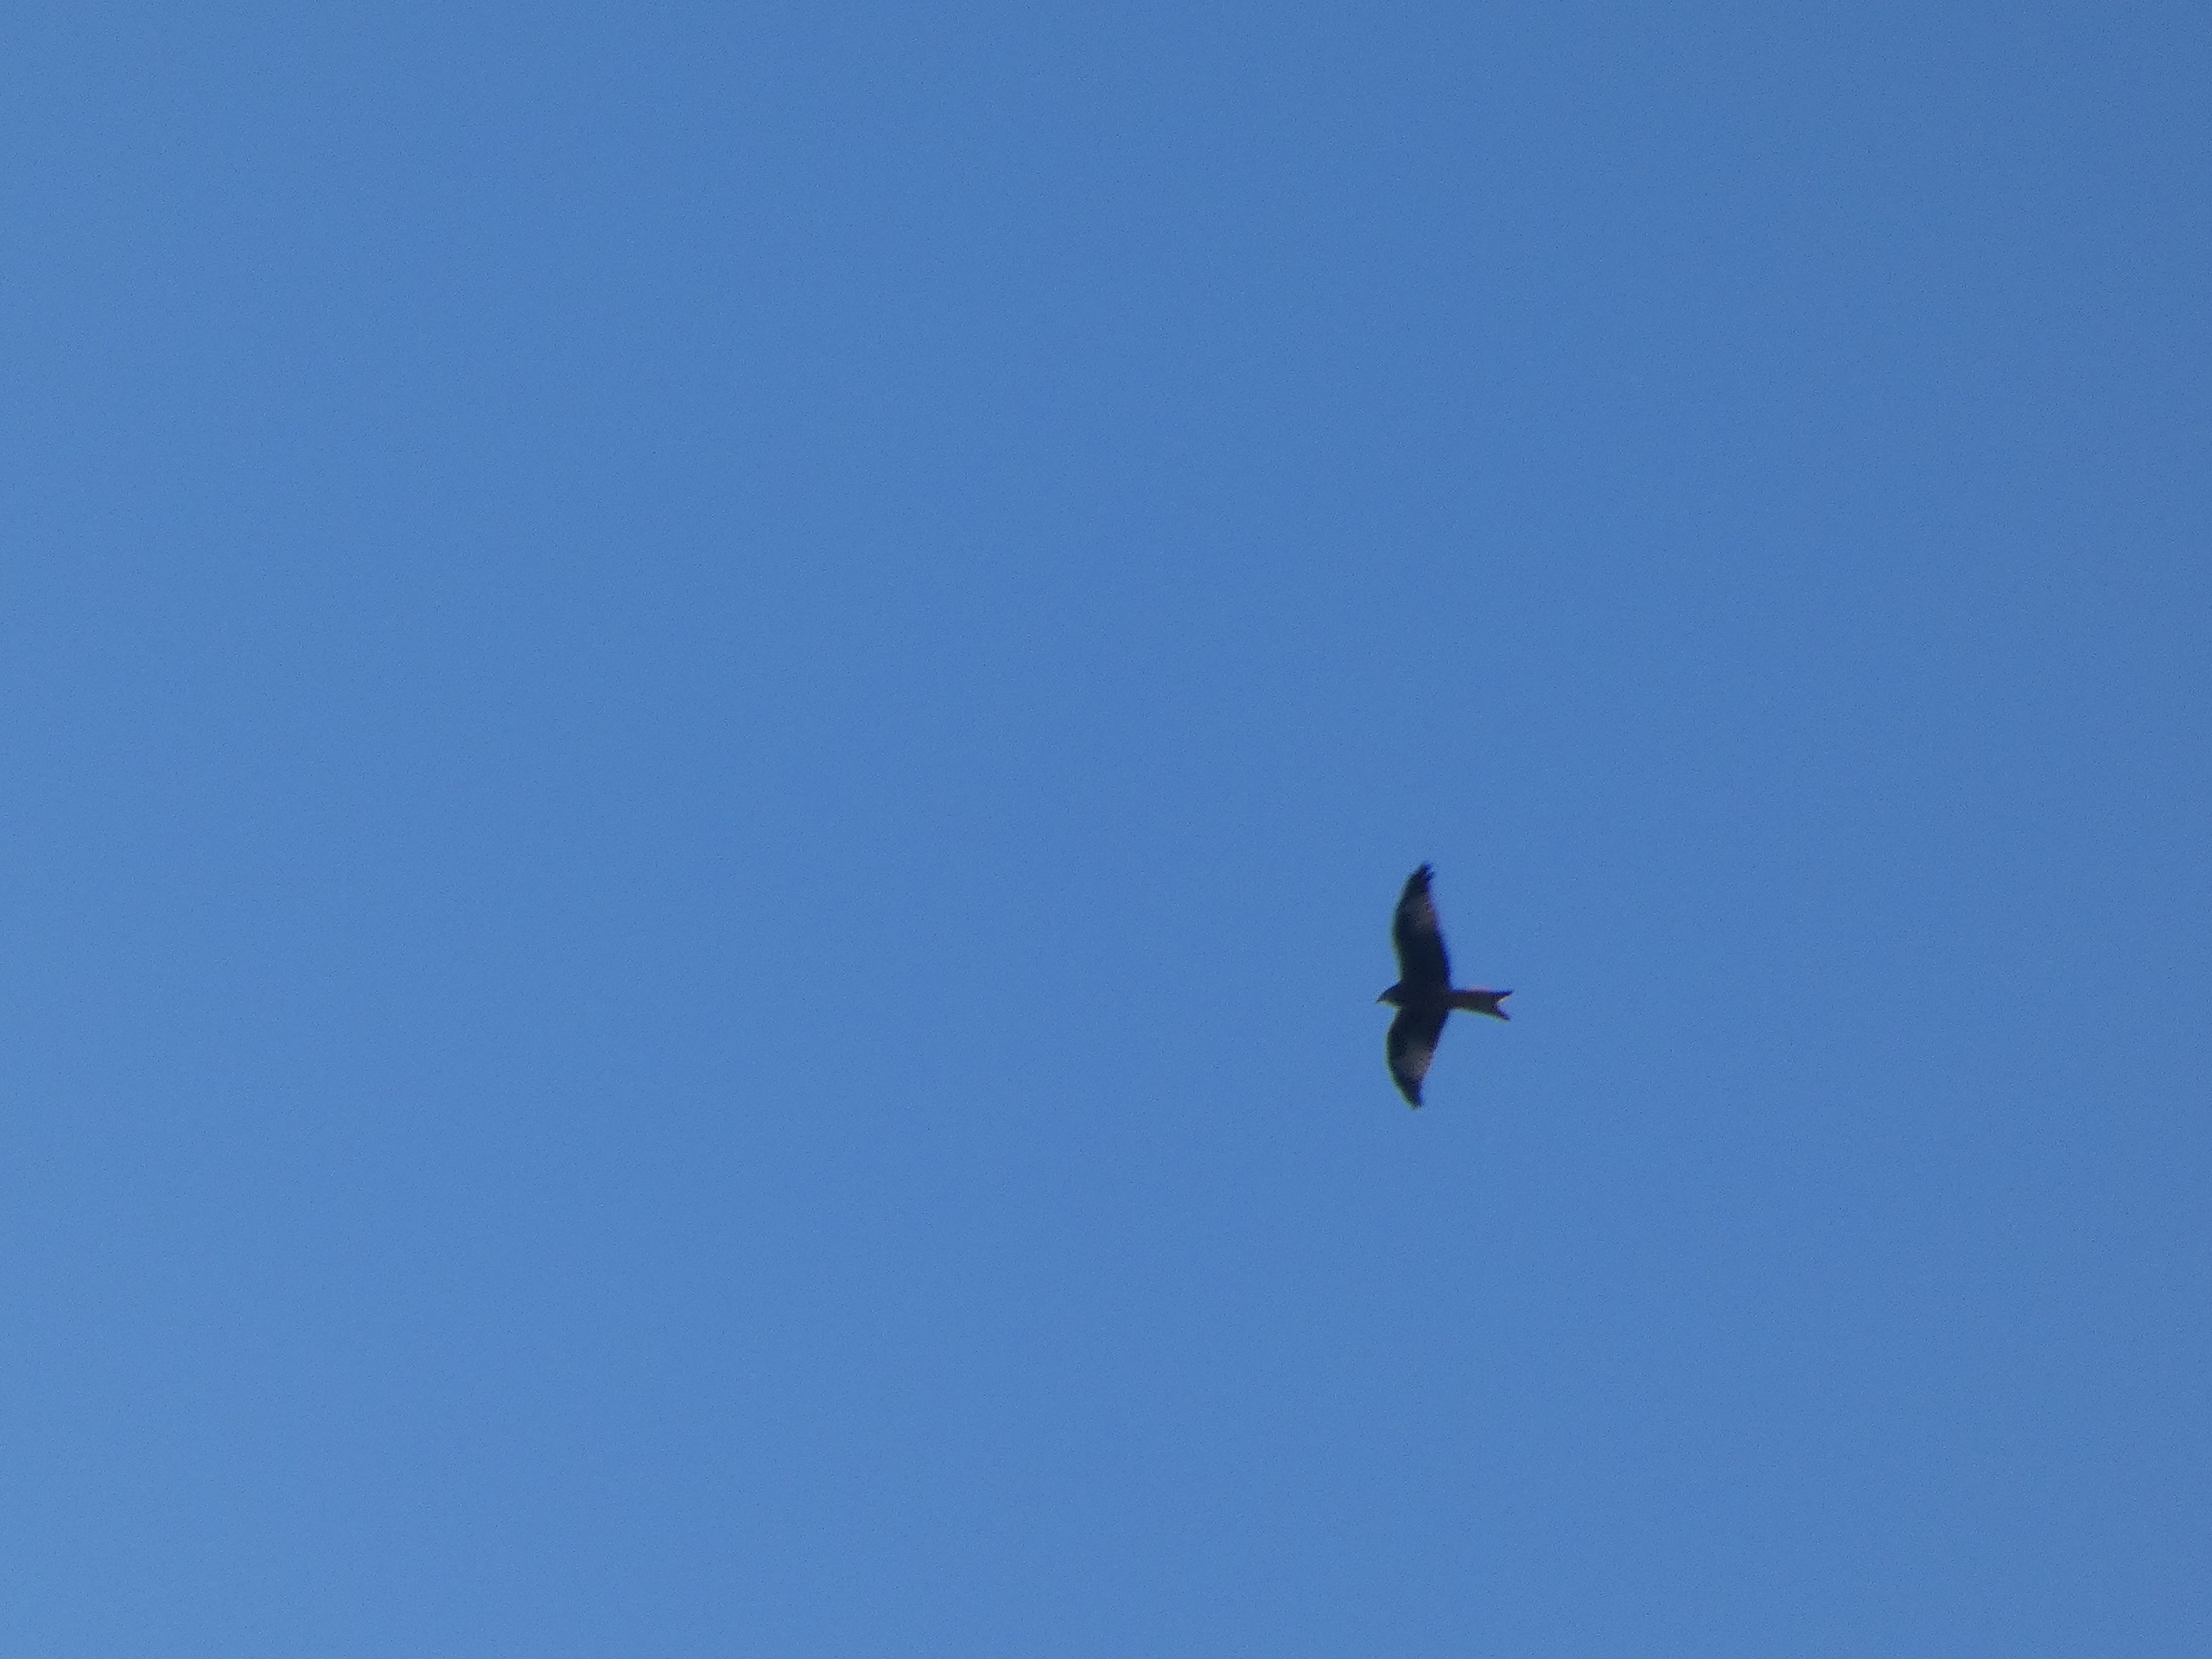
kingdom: Animalia
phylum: Chordata
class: Aves
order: Accipitriformes
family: Accipitridae
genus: Milvus
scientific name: Milvus milvus
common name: Rød glente
